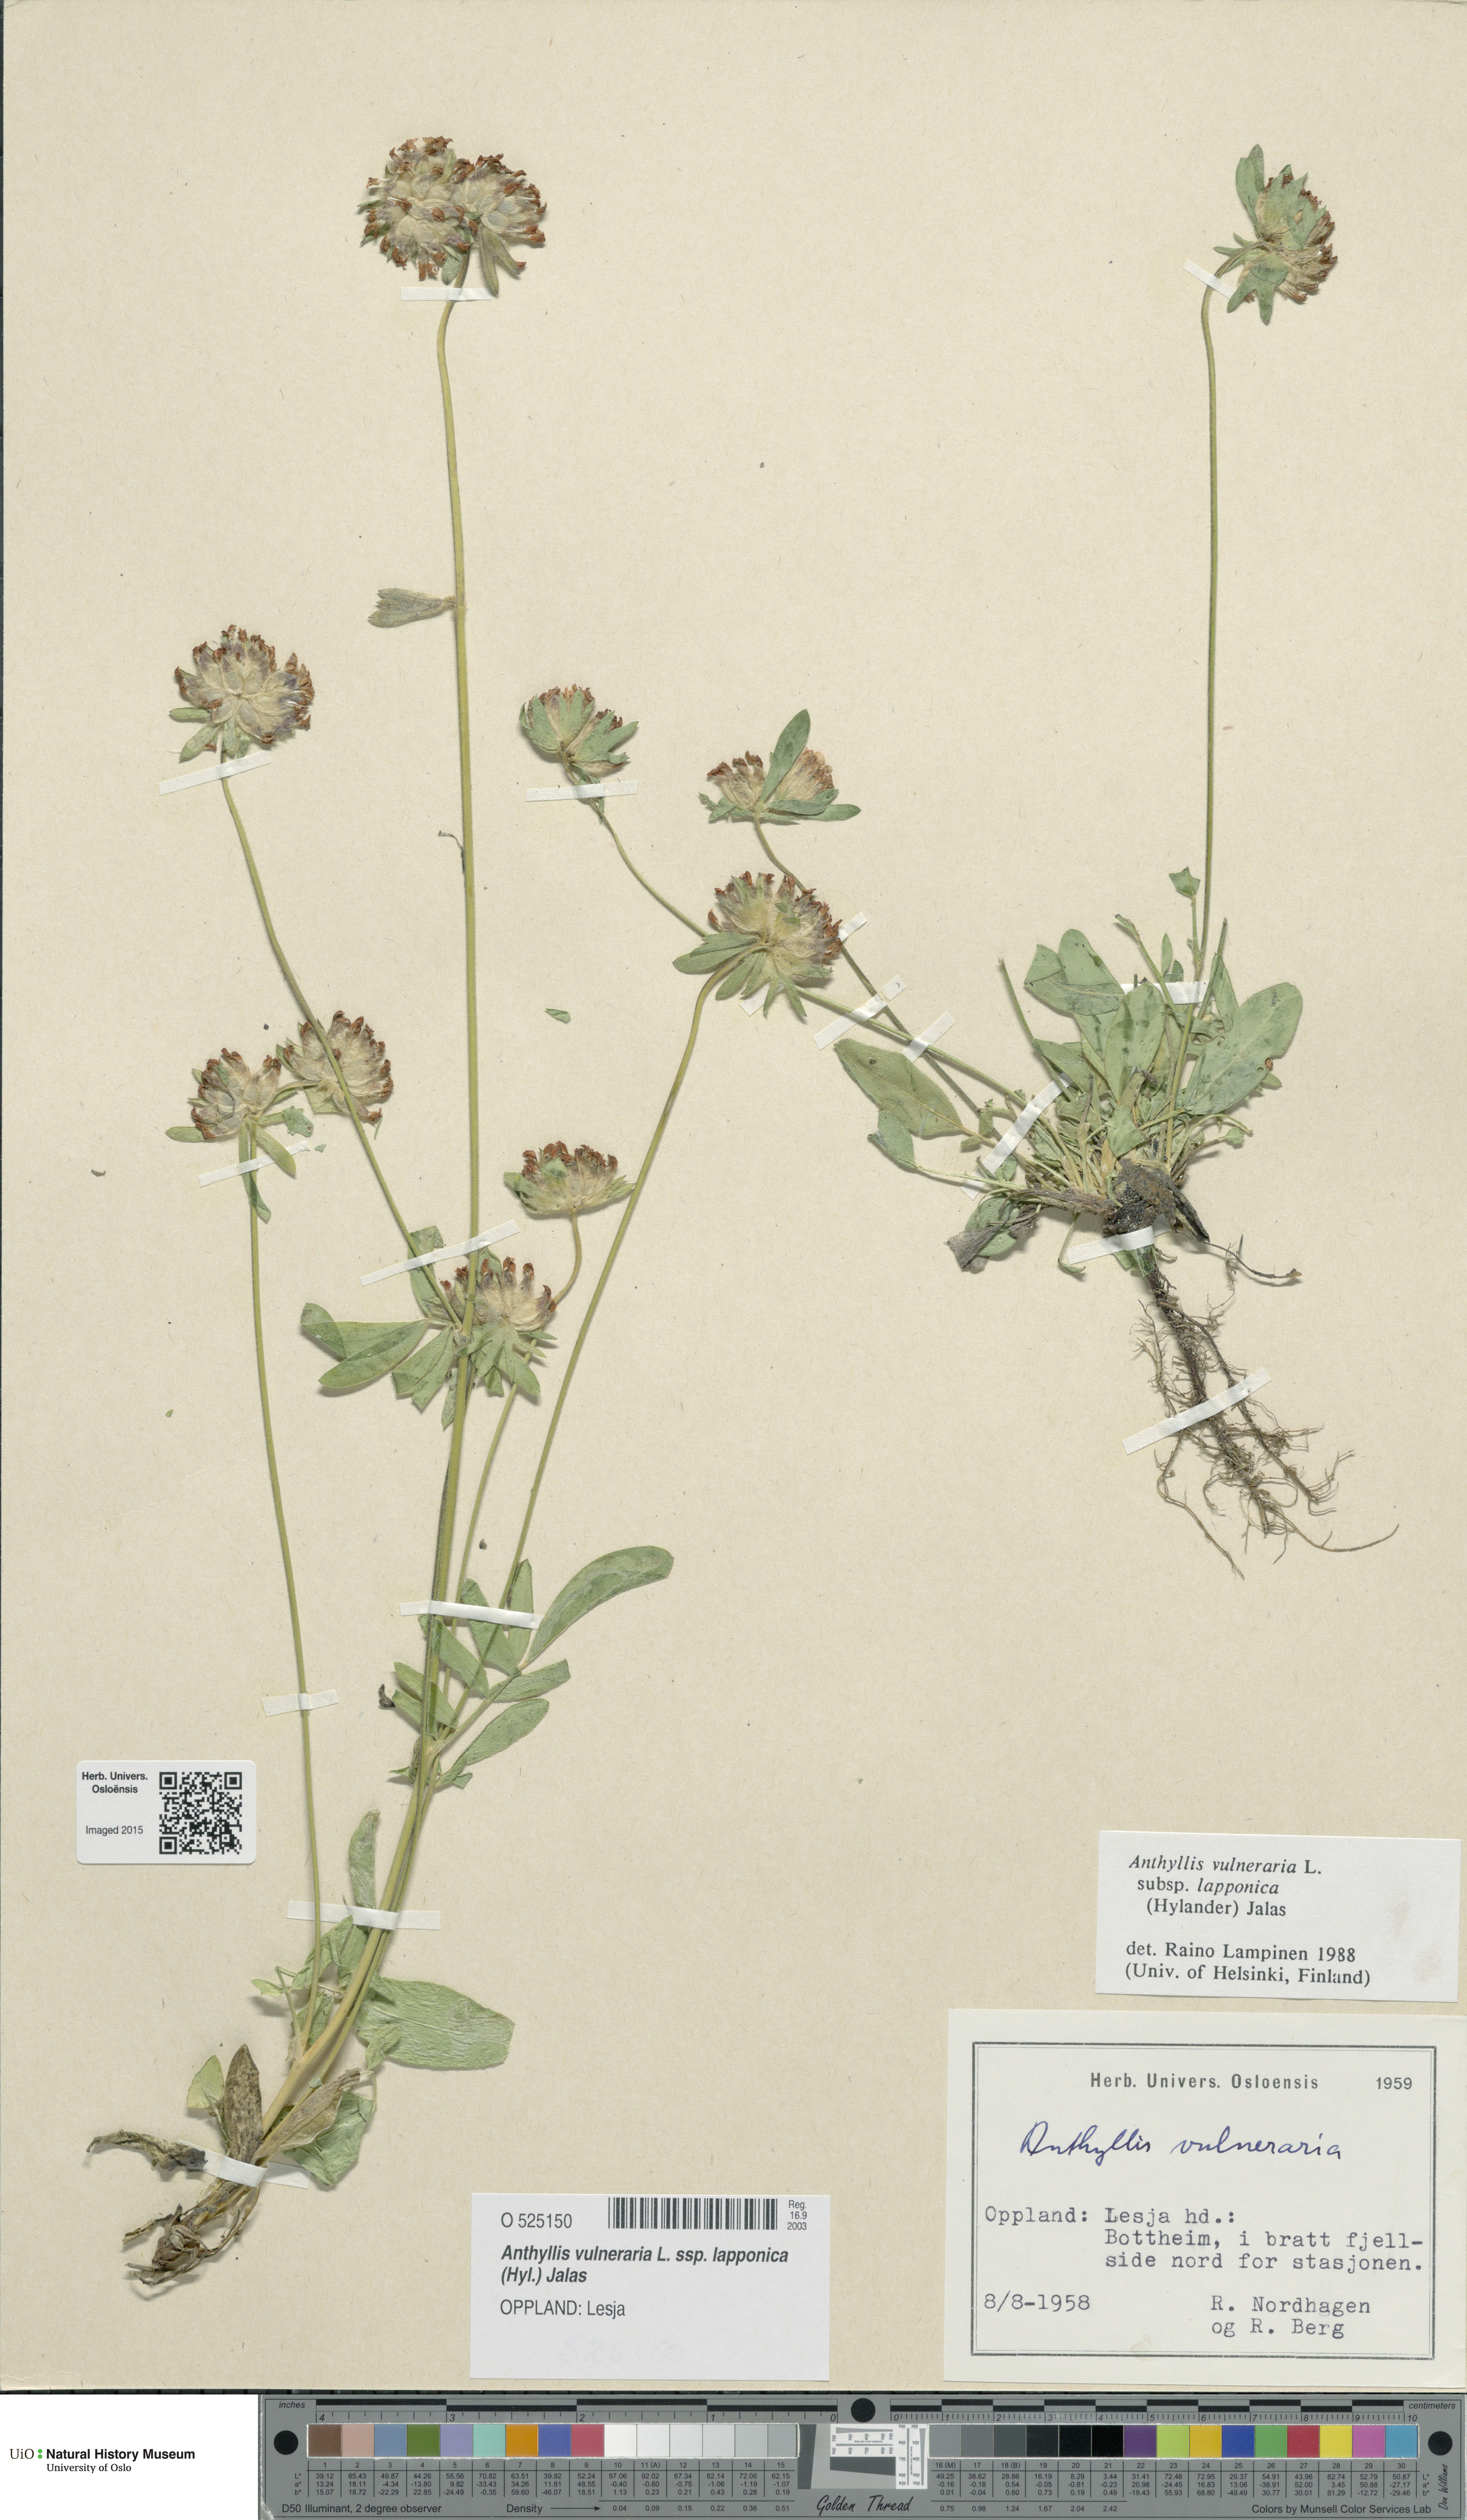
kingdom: Plantae
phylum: Tracheophyta
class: Magnoliopsida
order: Fabales
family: Fabaceae
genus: Anthyllis
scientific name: Anthyllis vulneraria
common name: Kidney vetch
